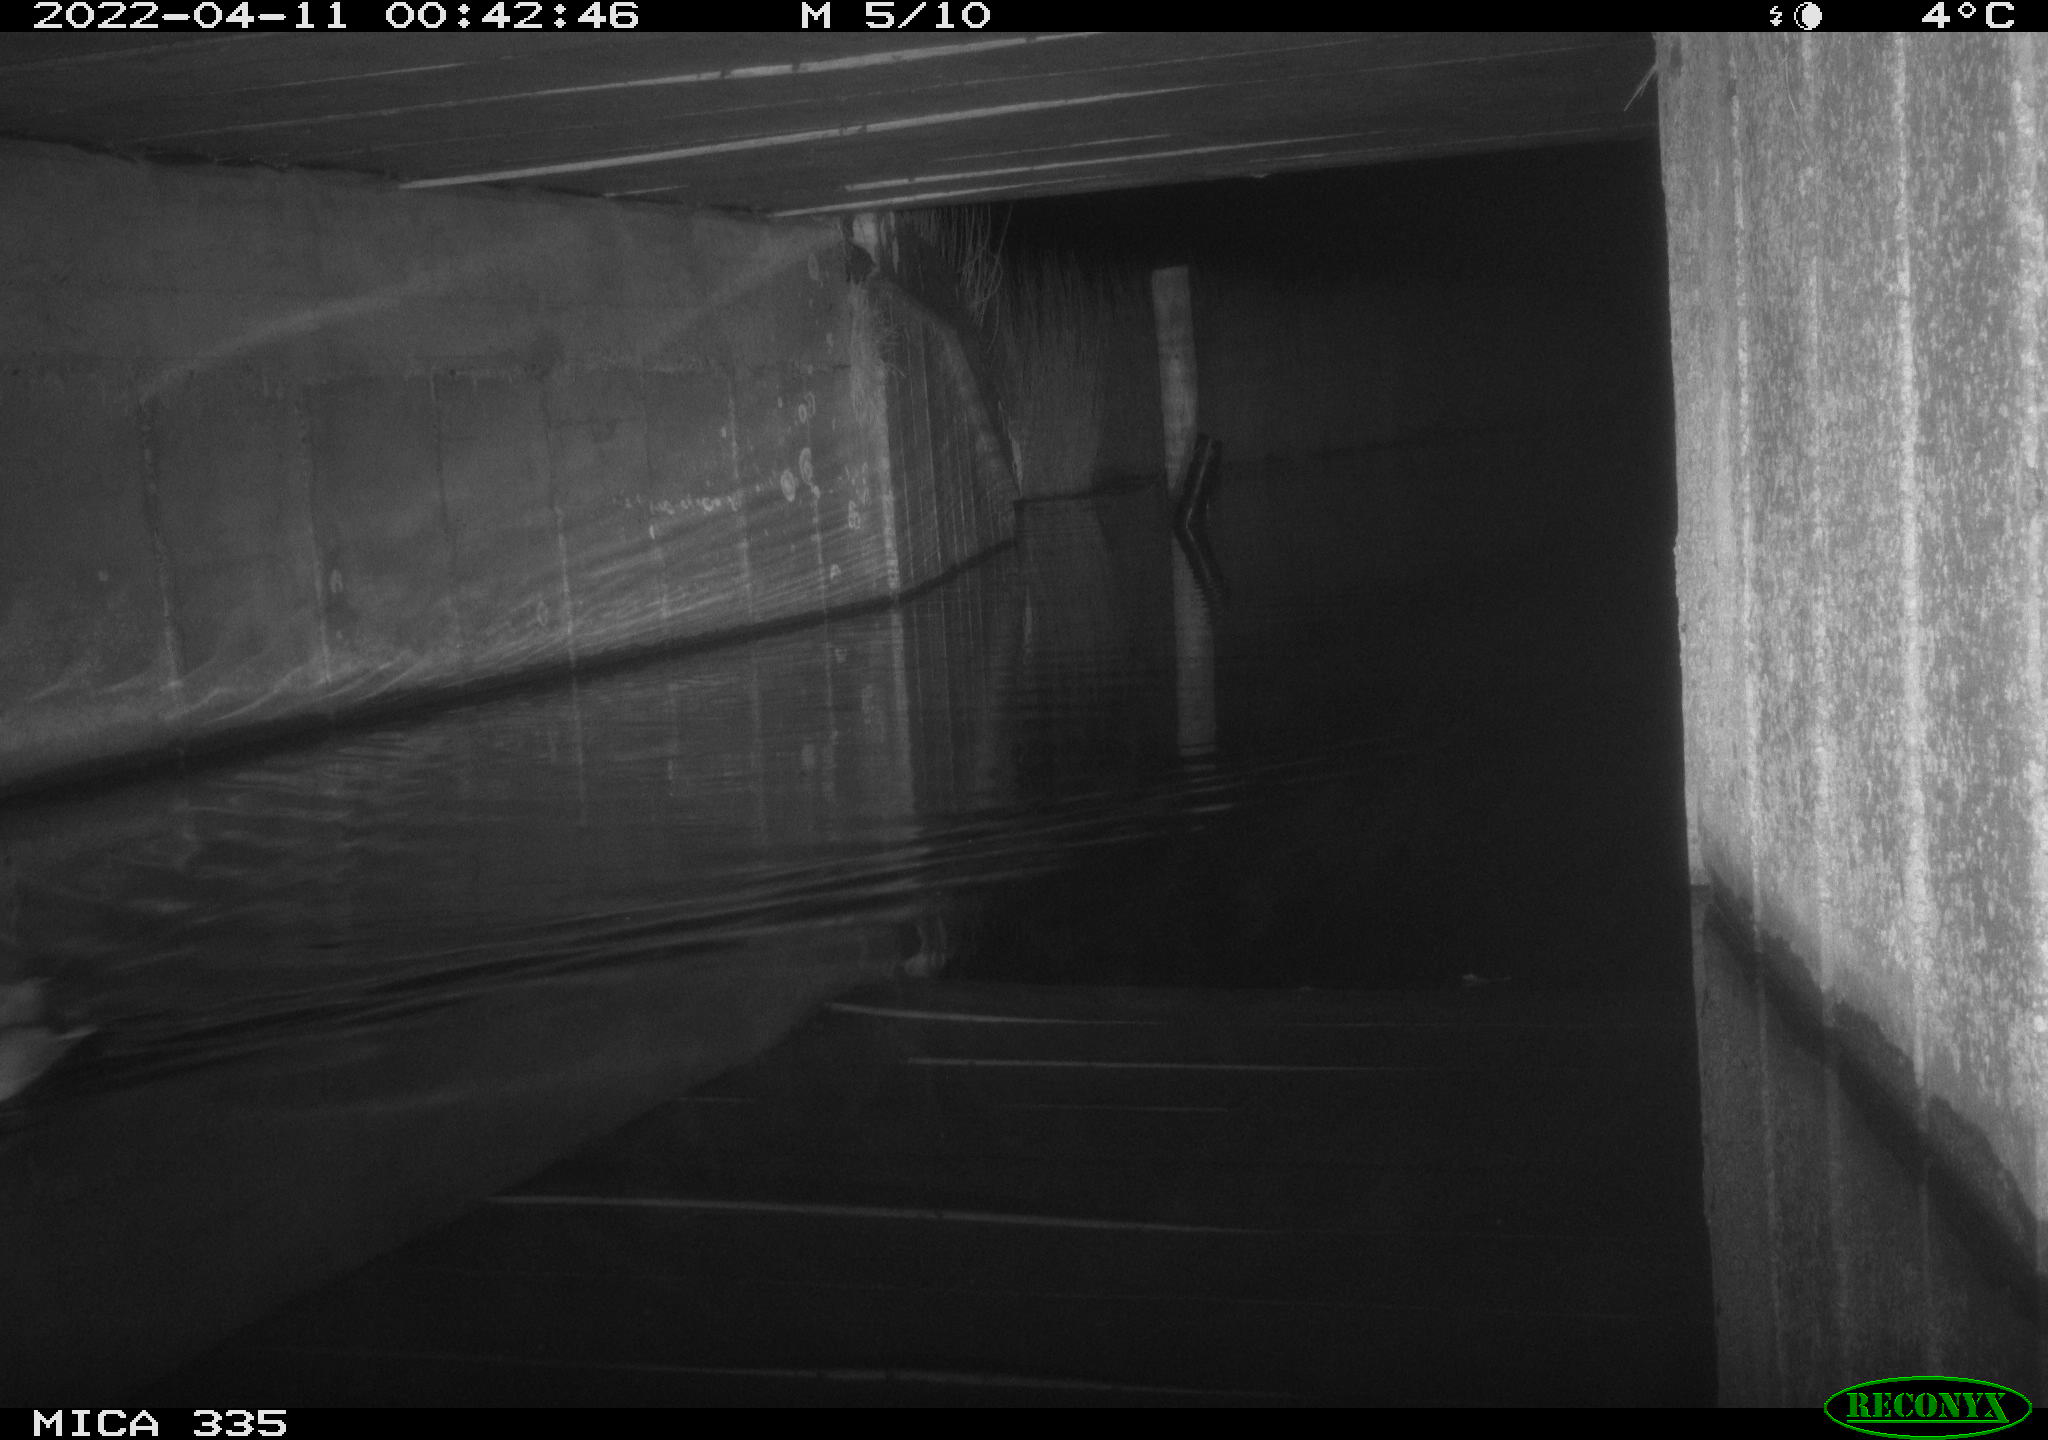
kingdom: Animalia
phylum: Chordata
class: Aves
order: Anseriformes
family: Anatidae
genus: Anas
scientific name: Anas platyrhynchos
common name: Mallard
